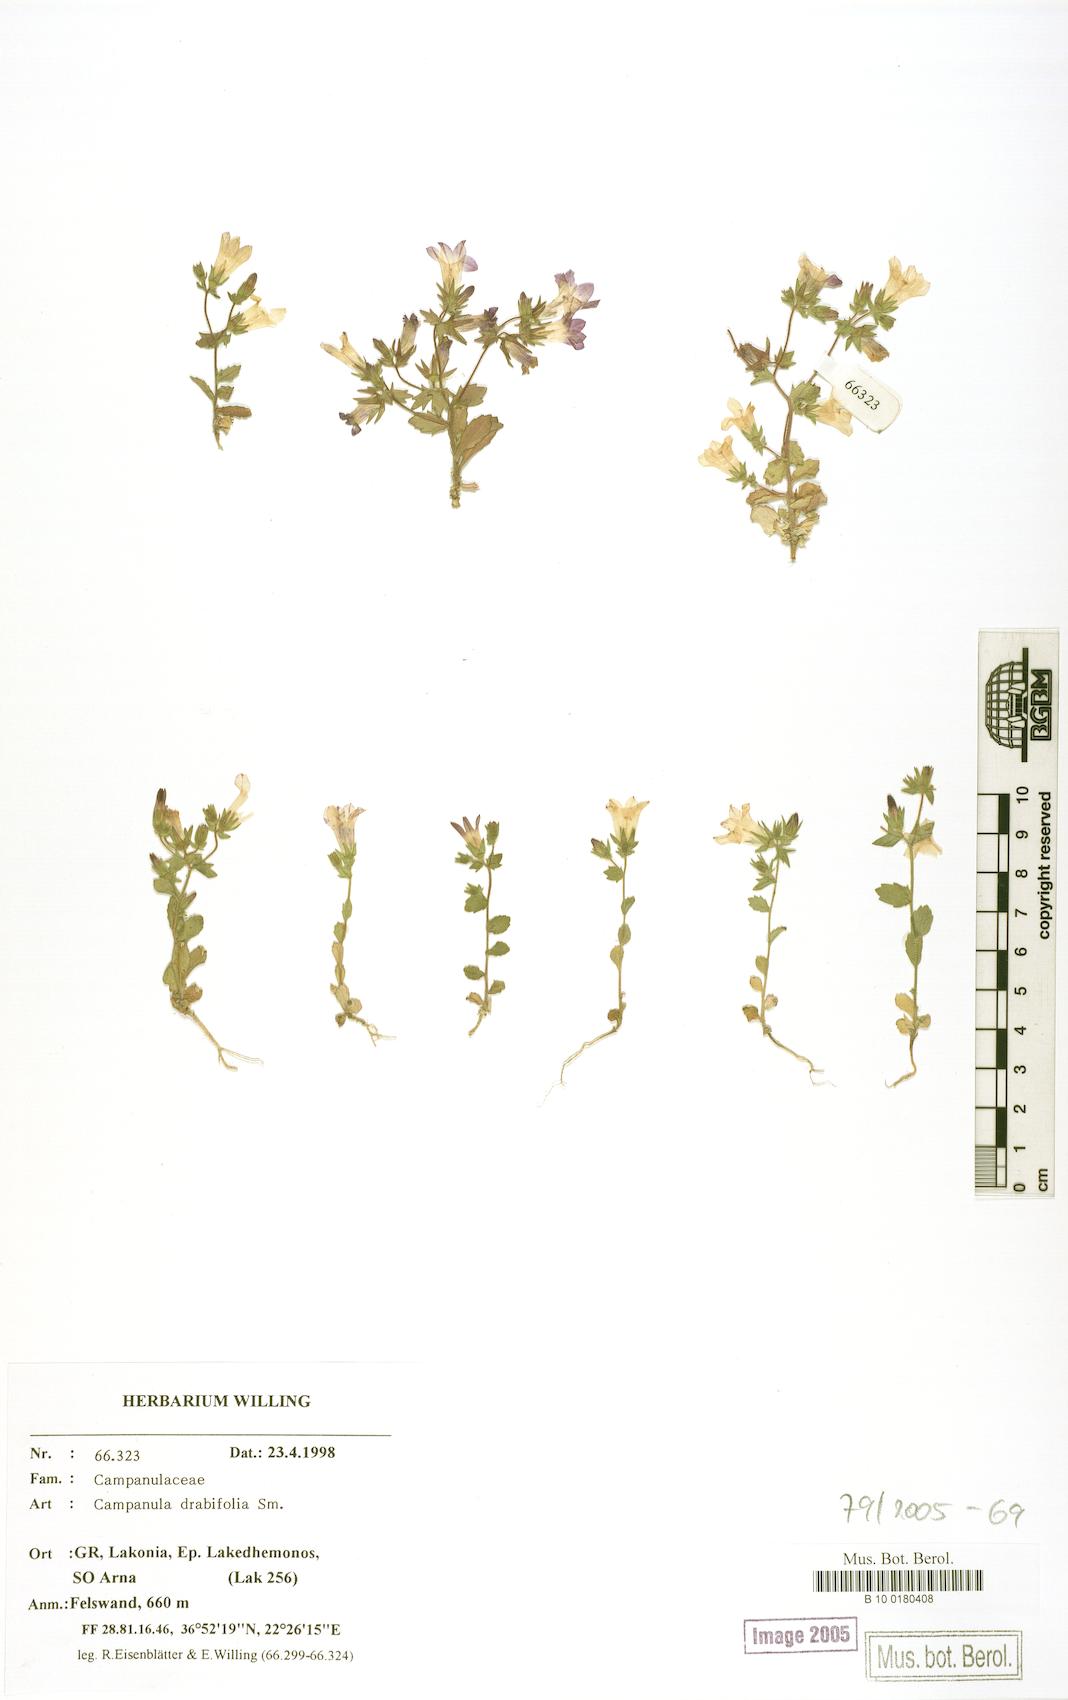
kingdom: Plantae
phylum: Tracheophyta
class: Magnoliopsida
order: Asterales
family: Campanulaceae
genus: Campanula
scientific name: Campanula drabifolia
